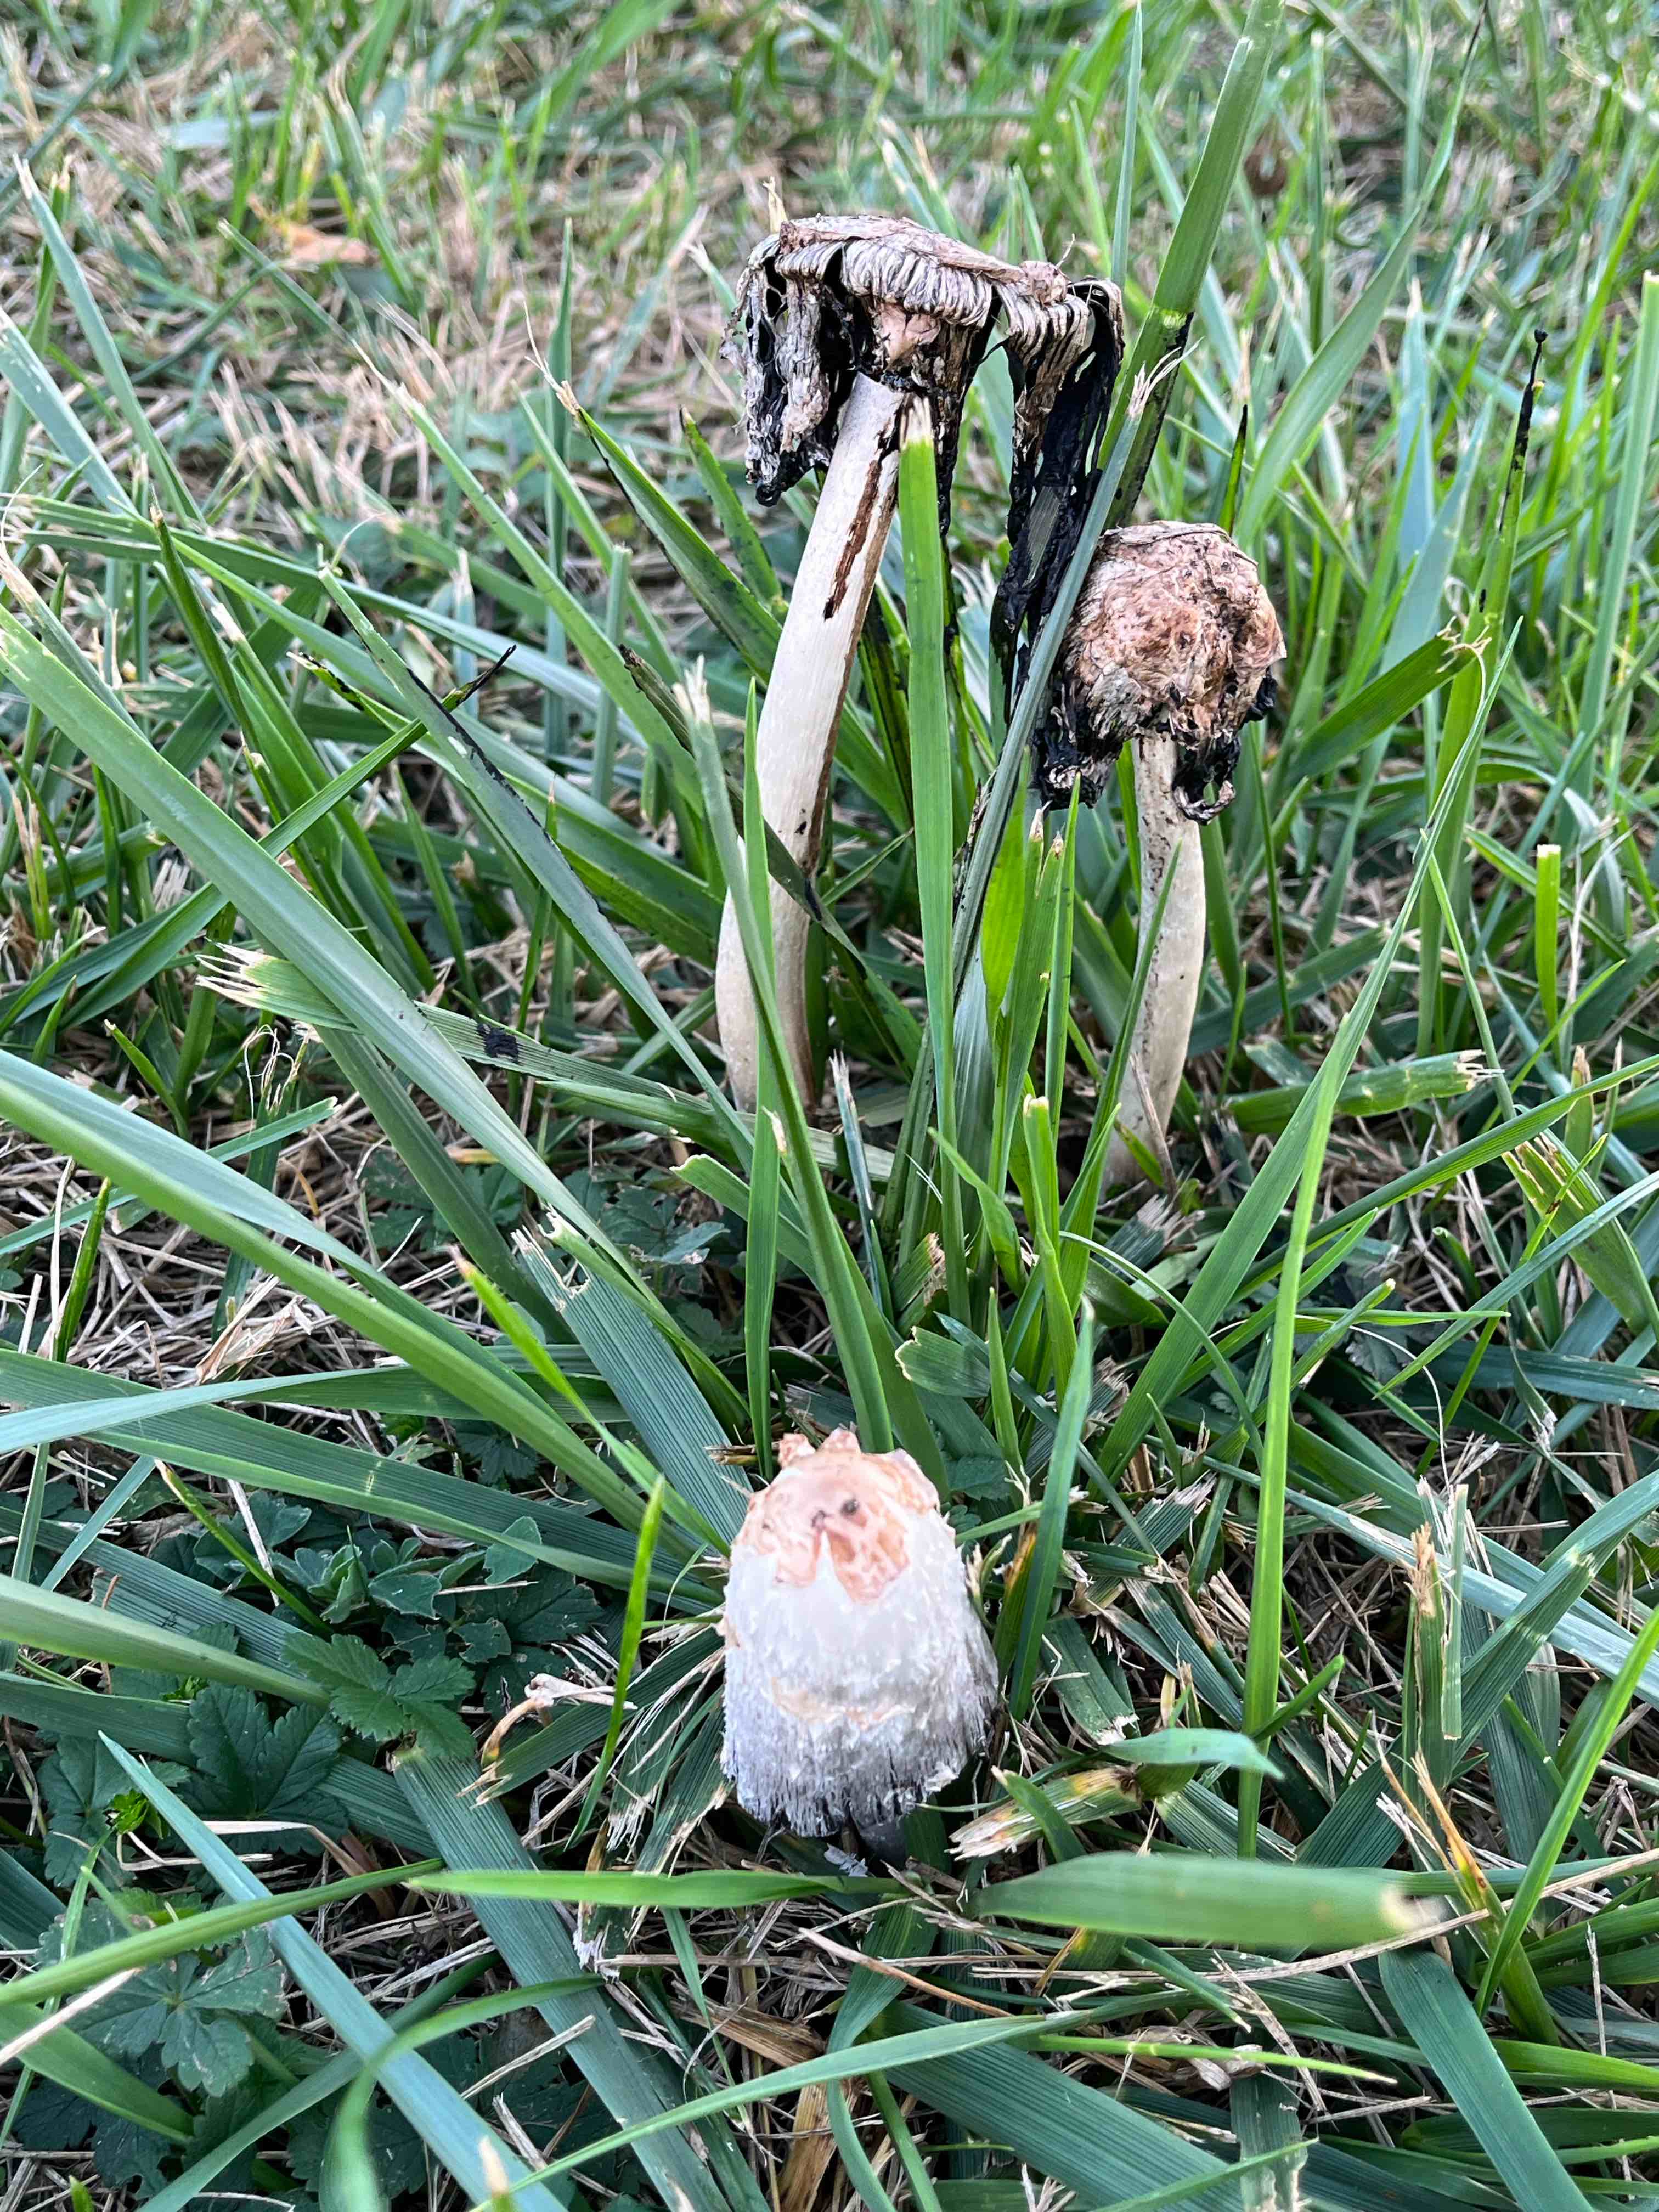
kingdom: Fungi
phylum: Basidiomycota
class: Agaricomycetes
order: Agaricales
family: Agaricaceae
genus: Coprinus
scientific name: Coprinus comatus
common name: stor parykhat
